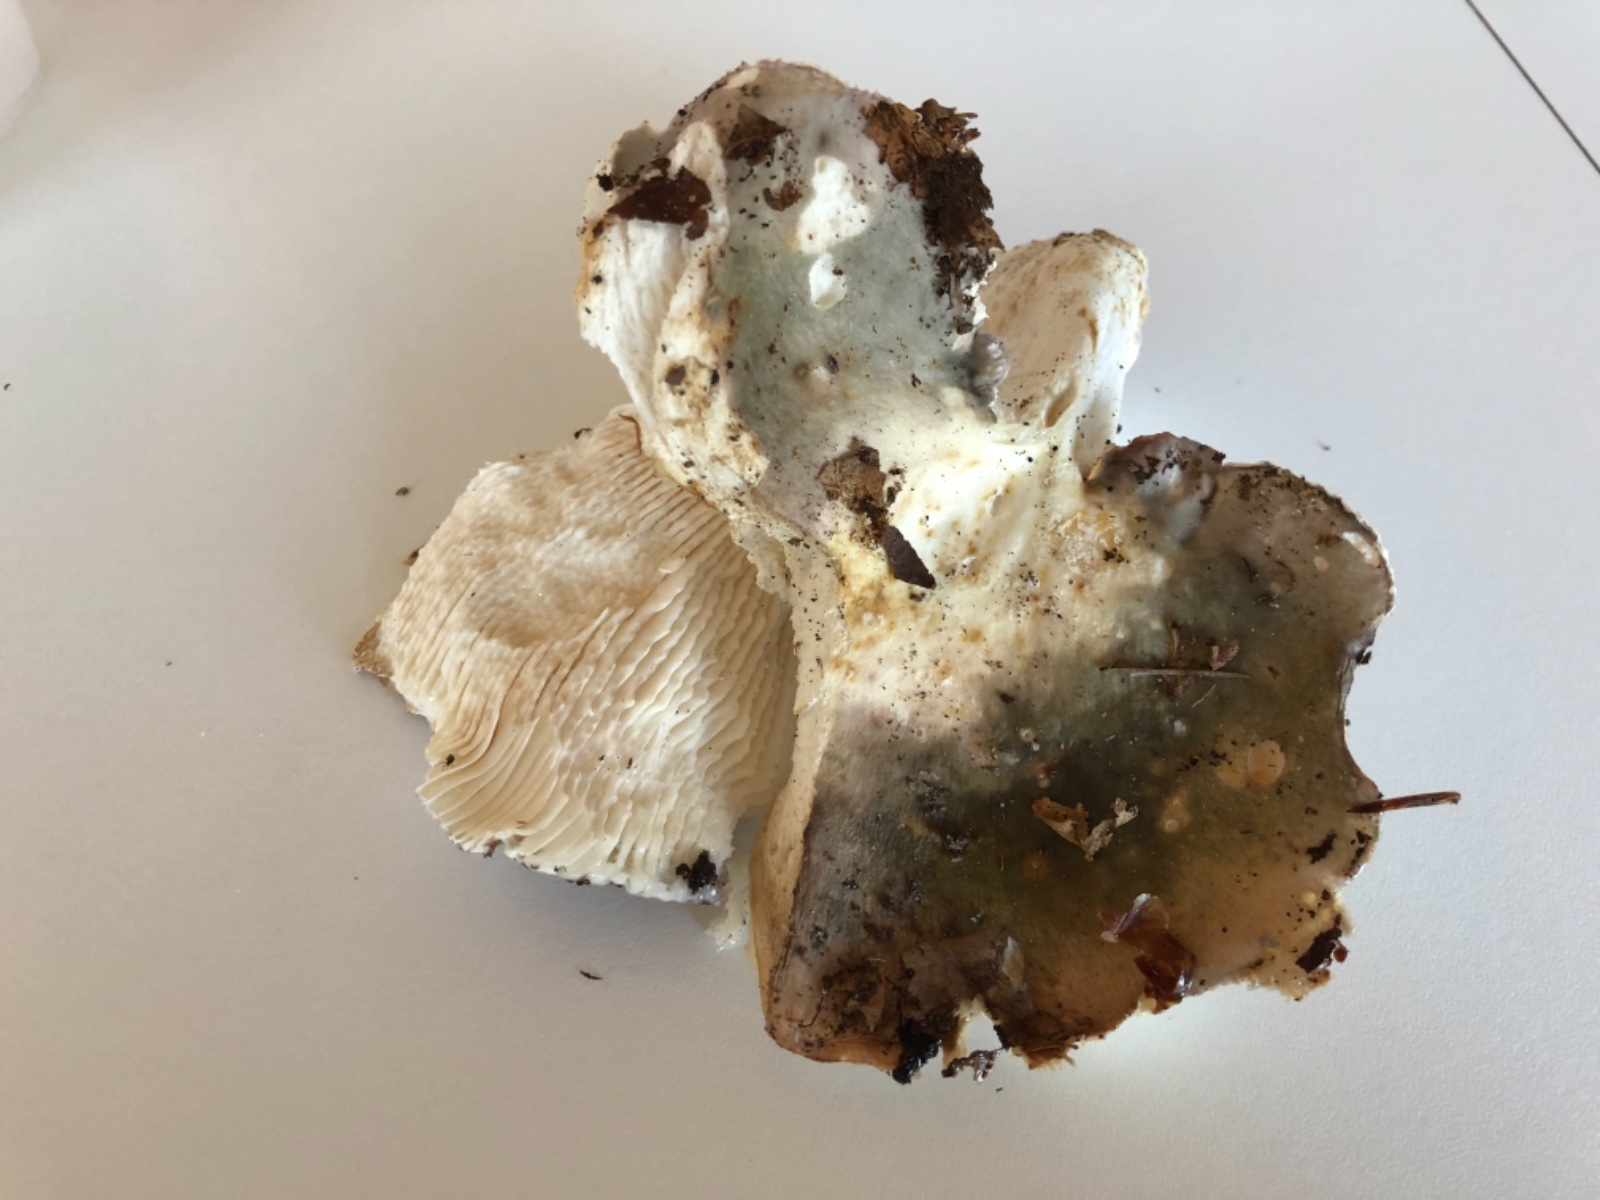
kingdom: Fungi
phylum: Basidiomycota
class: Agaricomycetes
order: Russulales
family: Russulaceae
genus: Russula
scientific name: Russula
